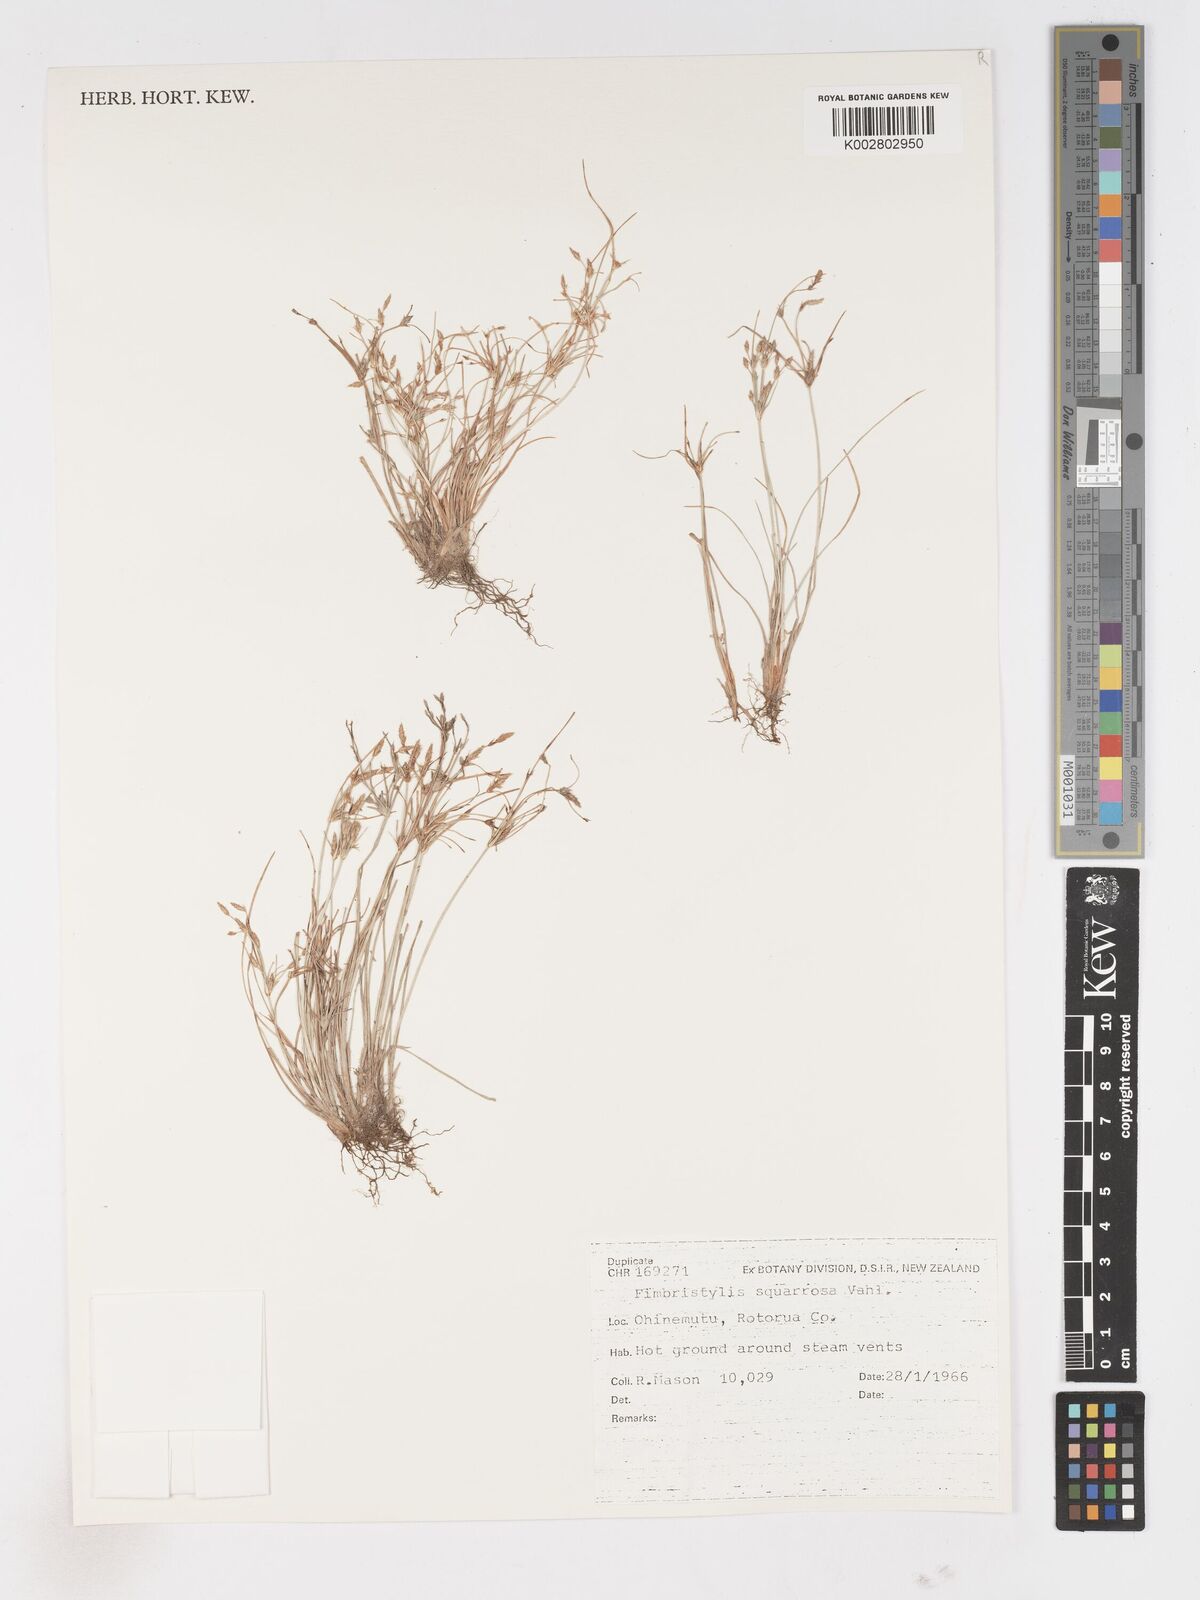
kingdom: Plantae
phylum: Tracheophyta
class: Liliopsida
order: Poales
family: Cyperaceae
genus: Fimbristylis
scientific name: Fimbristylis velata
